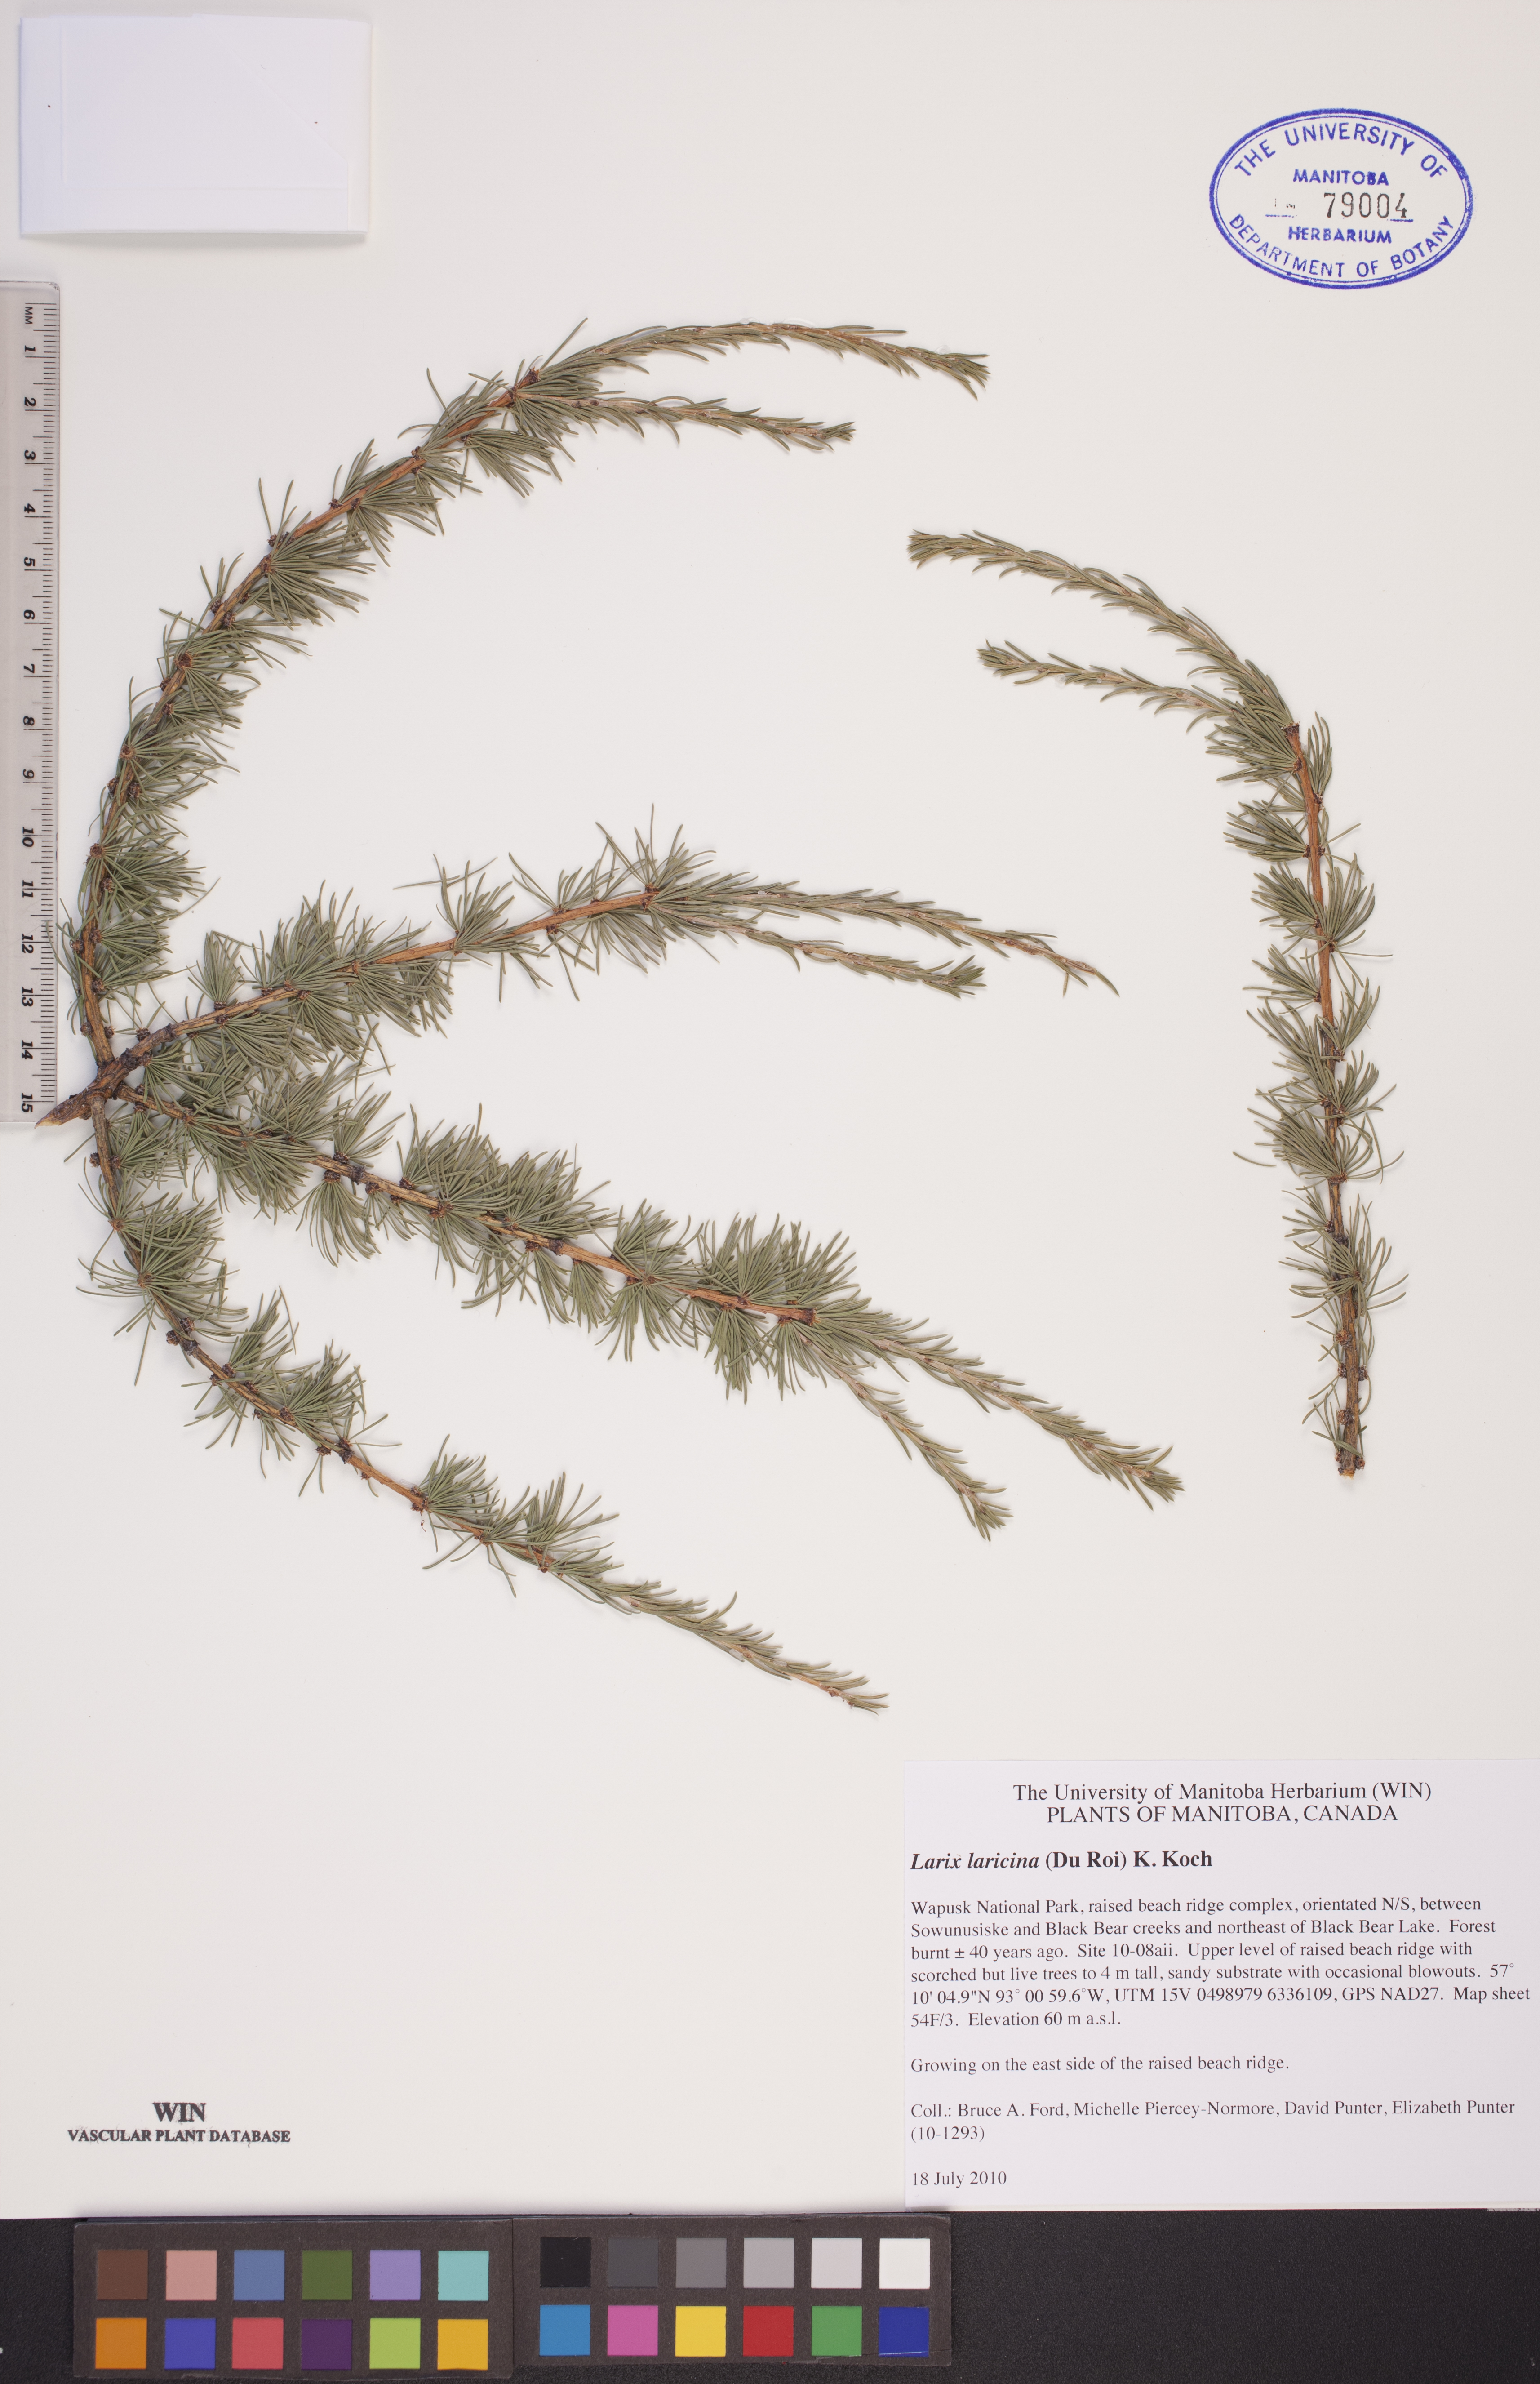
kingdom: Plantae
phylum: Tracheophyta
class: Pinopsida
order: Pinales
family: Pinaceae
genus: Larix
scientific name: Larix laricina
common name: American larch
